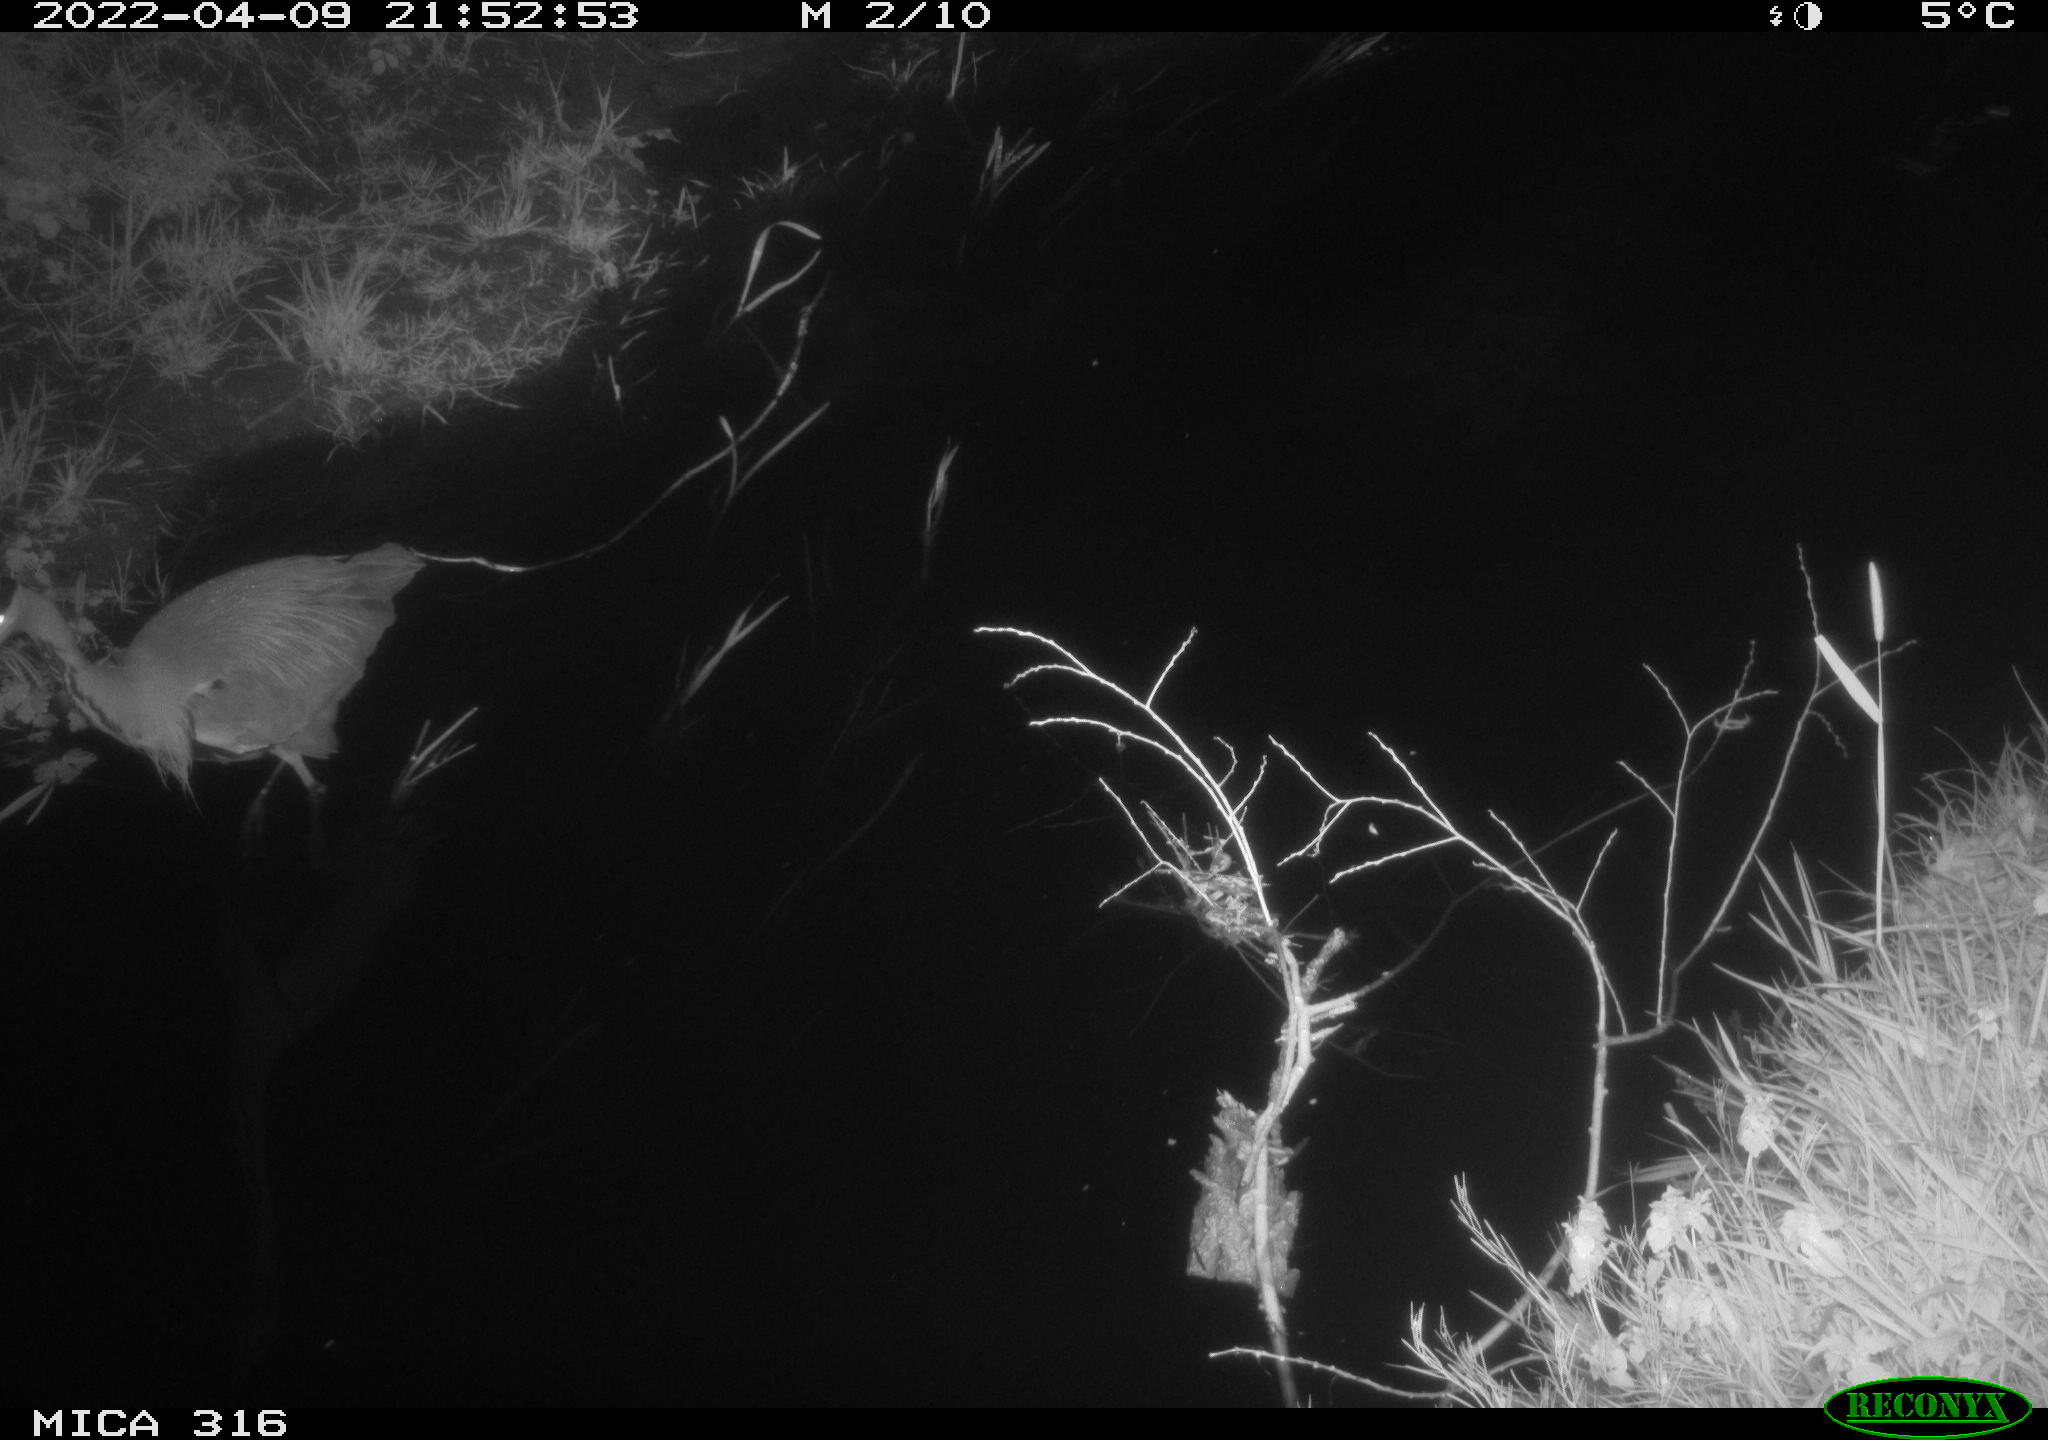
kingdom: Animalia
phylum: Chordata
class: Aves
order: Pelecaniformes
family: Ardeidae
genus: Ardea
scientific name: Ardea
